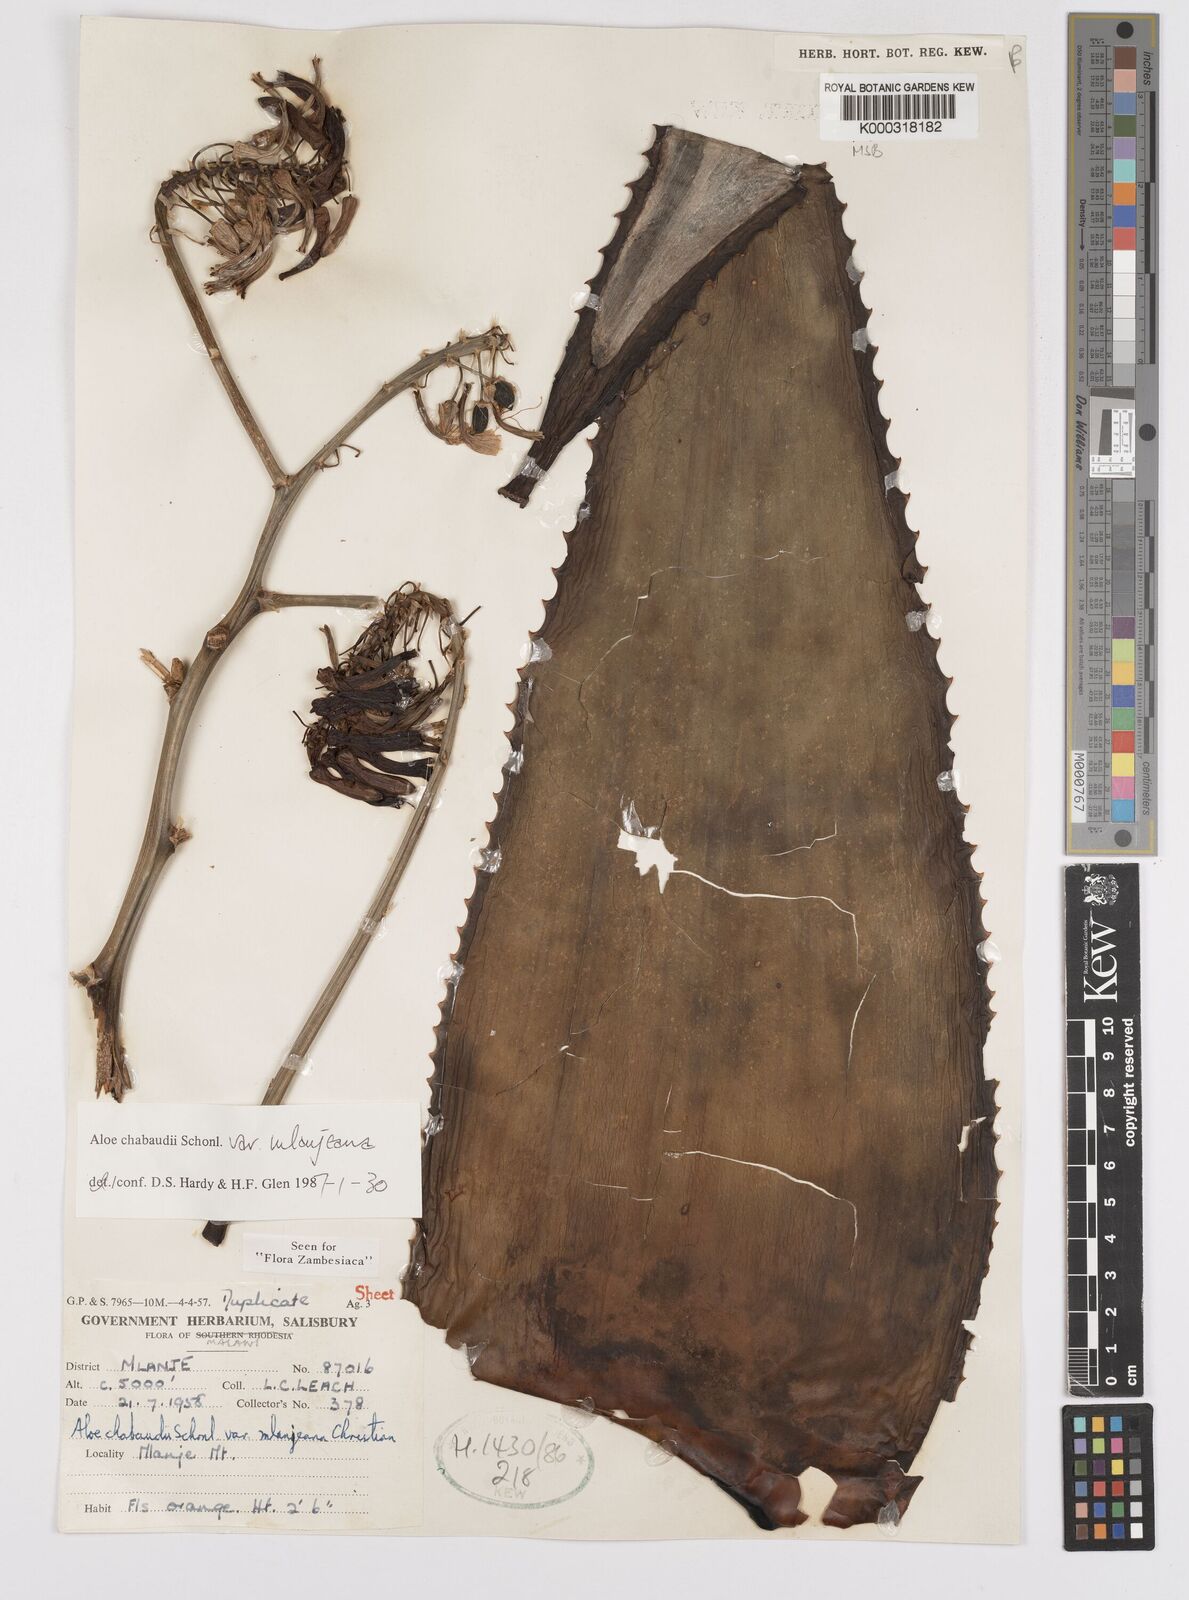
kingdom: Plantae
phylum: Tracheophyta
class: Liliopsida
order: Asparagales
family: Asphodelaceae
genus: Aloe
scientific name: Aloe chabaudii
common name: Chabaud's aloe
